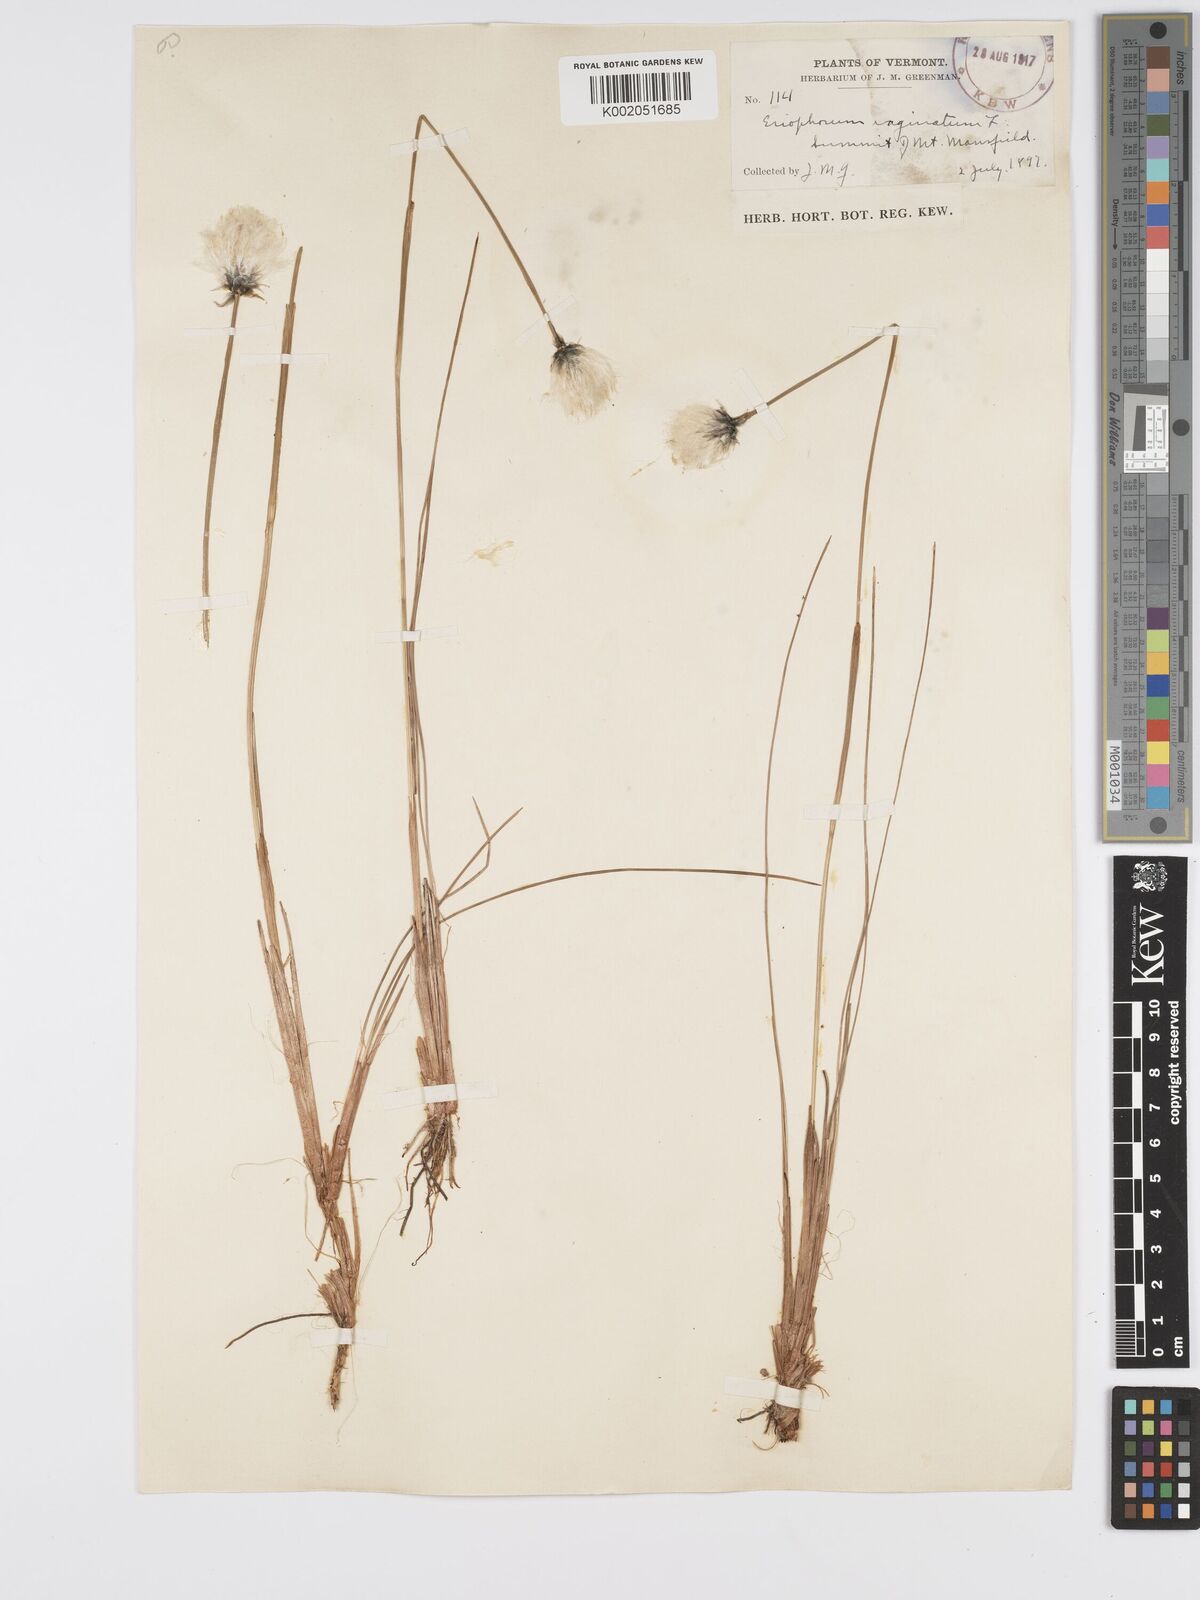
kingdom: Plantae
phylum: Tracheophyta
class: Liliopsida
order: Poales
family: Cyperaceae
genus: Eriophorum
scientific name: Eriophorum vaginatum
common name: Hare's-tail cottongrass
